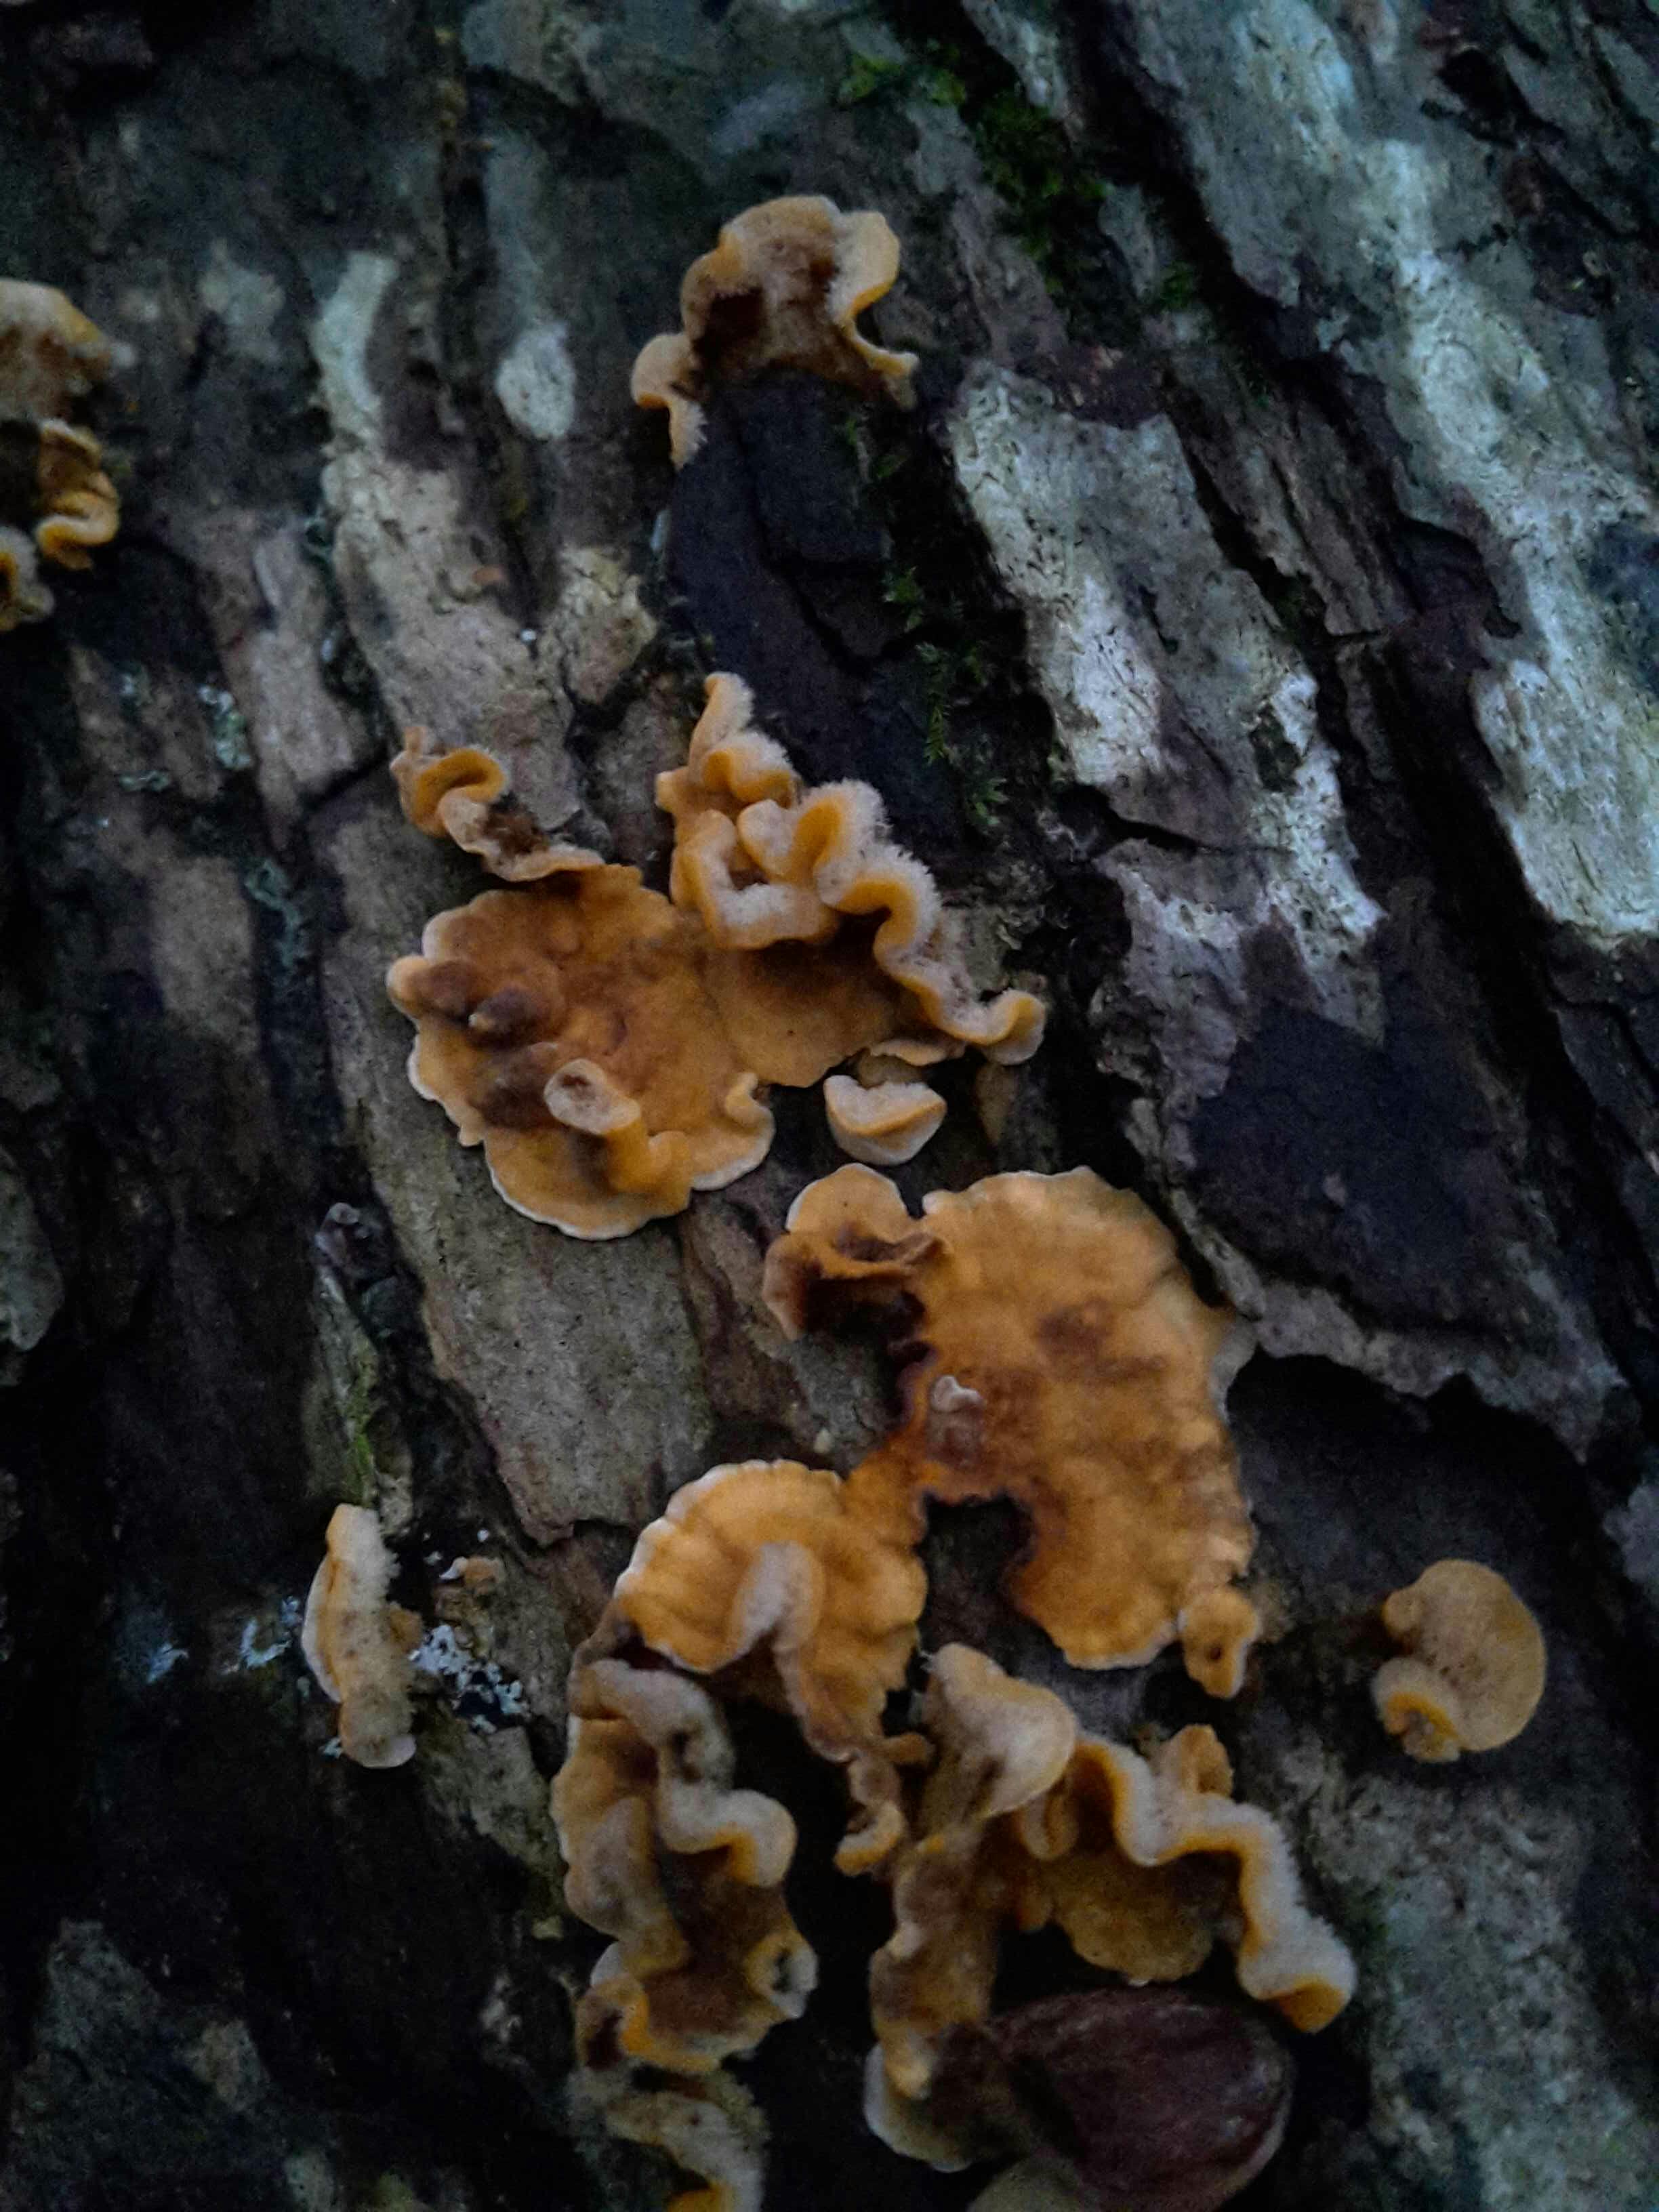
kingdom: Fungi
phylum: Basidiomycota
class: Agaricomycetes
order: Russulales
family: Stereaceae
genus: Stereum
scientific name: Stereum hirsutum
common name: håret lædersvamp
